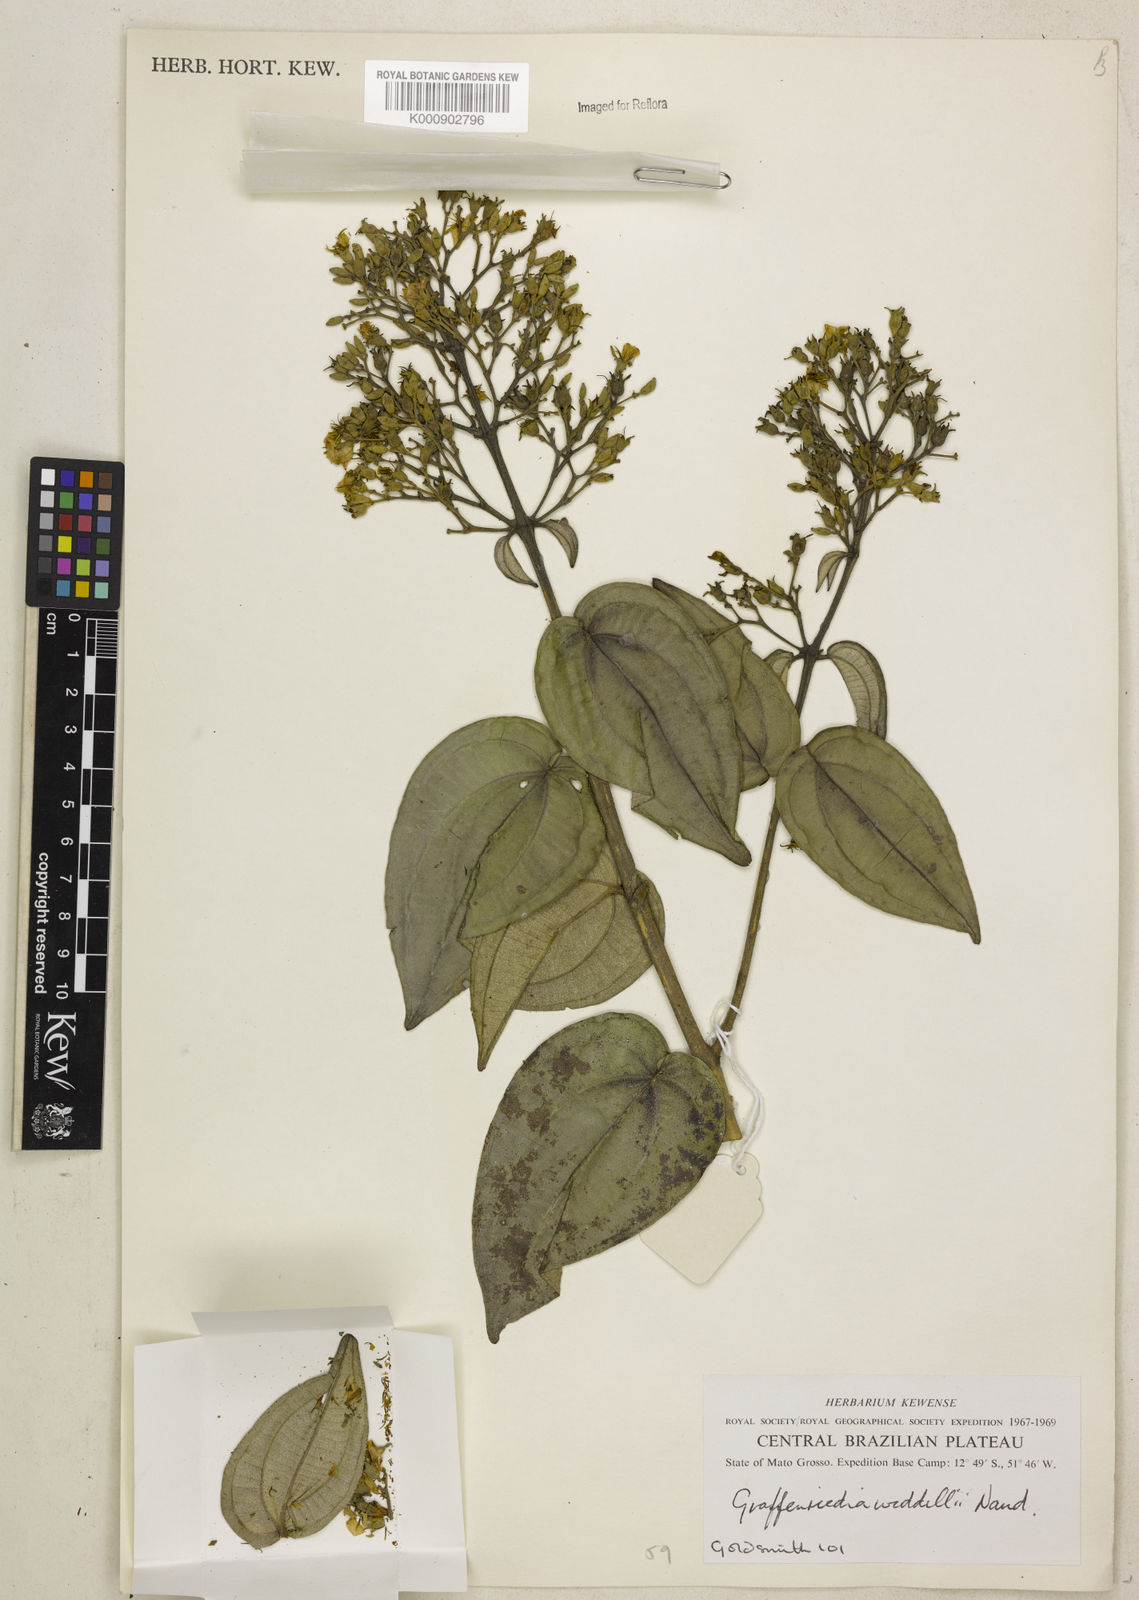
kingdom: Plantae
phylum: Tracheophyta
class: Magnoliopsida
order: Myrtales
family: Melastomataceae
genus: Graffenrieda
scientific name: Graffenrieda weddellii
